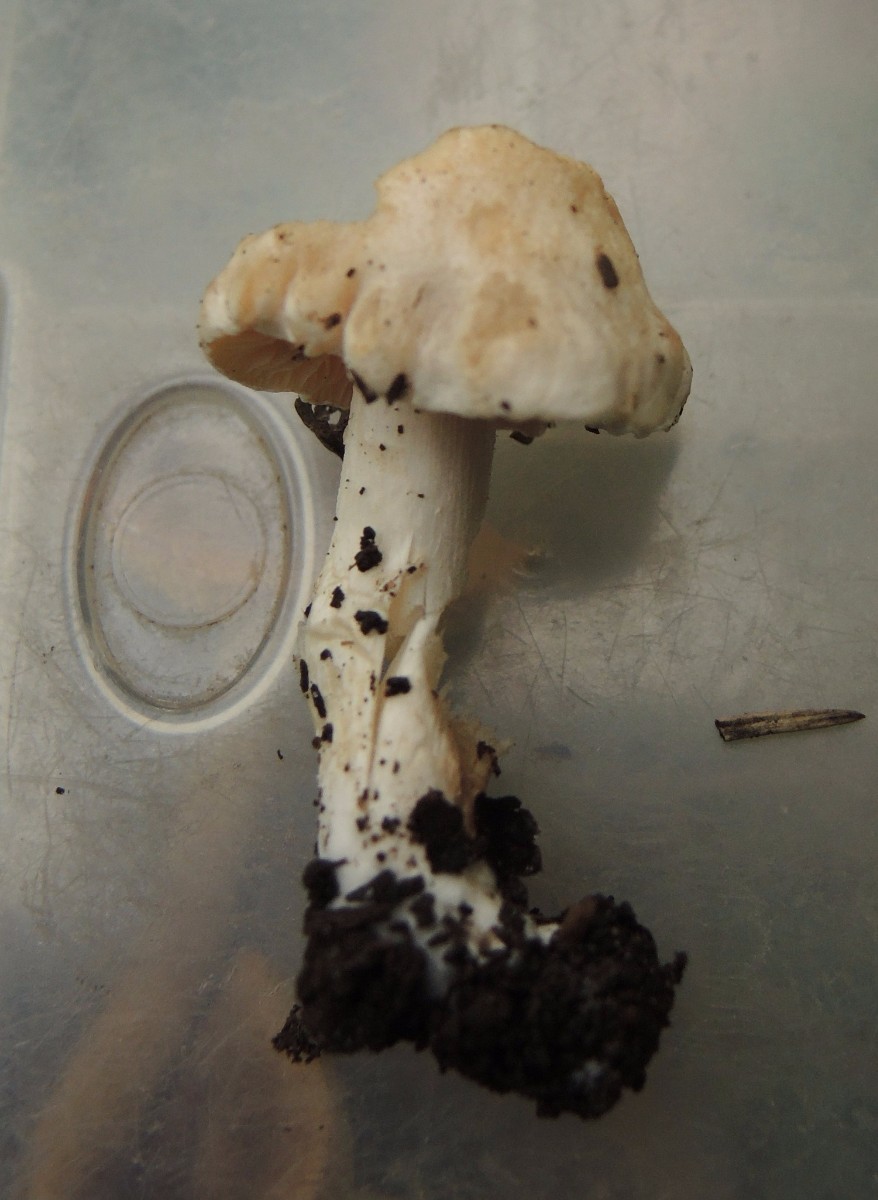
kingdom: Fungi
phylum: Basidiomycota
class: Agaricomycetes
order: Agaricales
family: Hymenogastraceae
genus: Hebeloma
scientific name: Hebeloma fusisporum
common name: kandis-tåreblad
